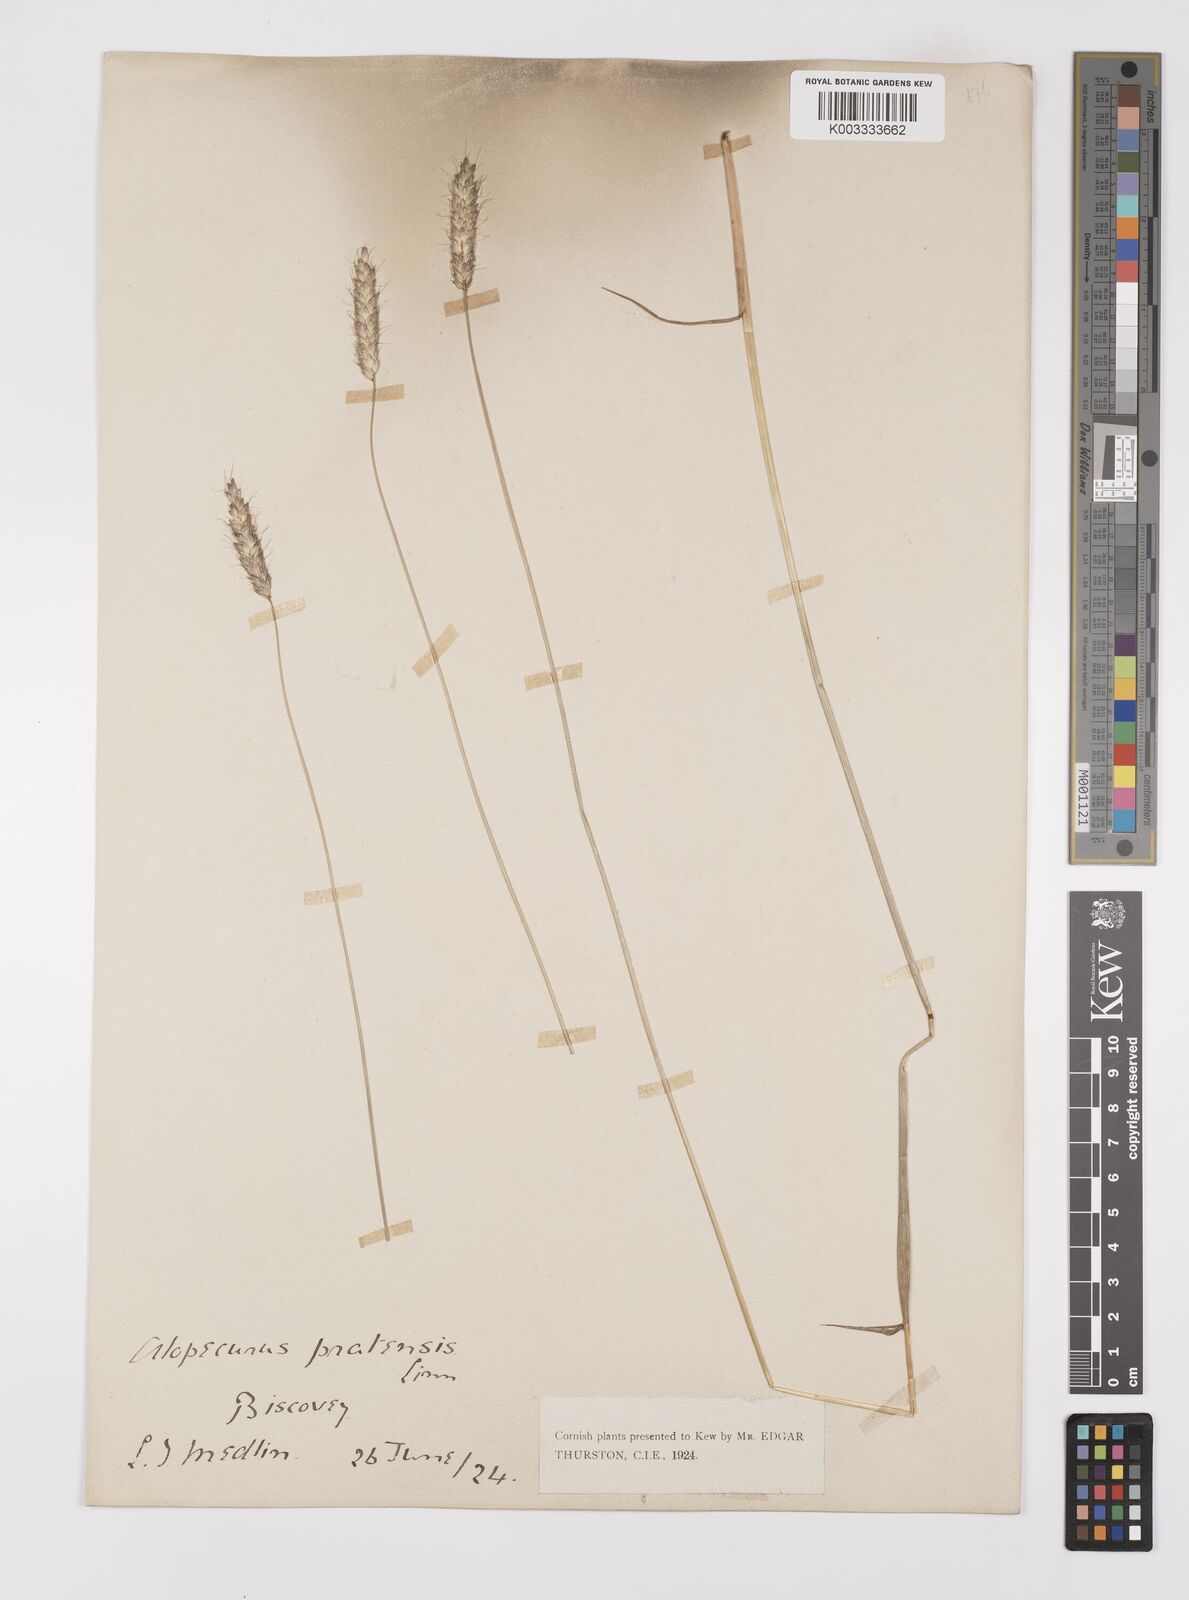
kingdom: Plantae
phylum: Tracheophyta
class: Liliopsida
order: Poales
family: Poaceae
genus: Alopecurus
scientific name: Alopecurus pratensis
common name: Meadow foxtail
